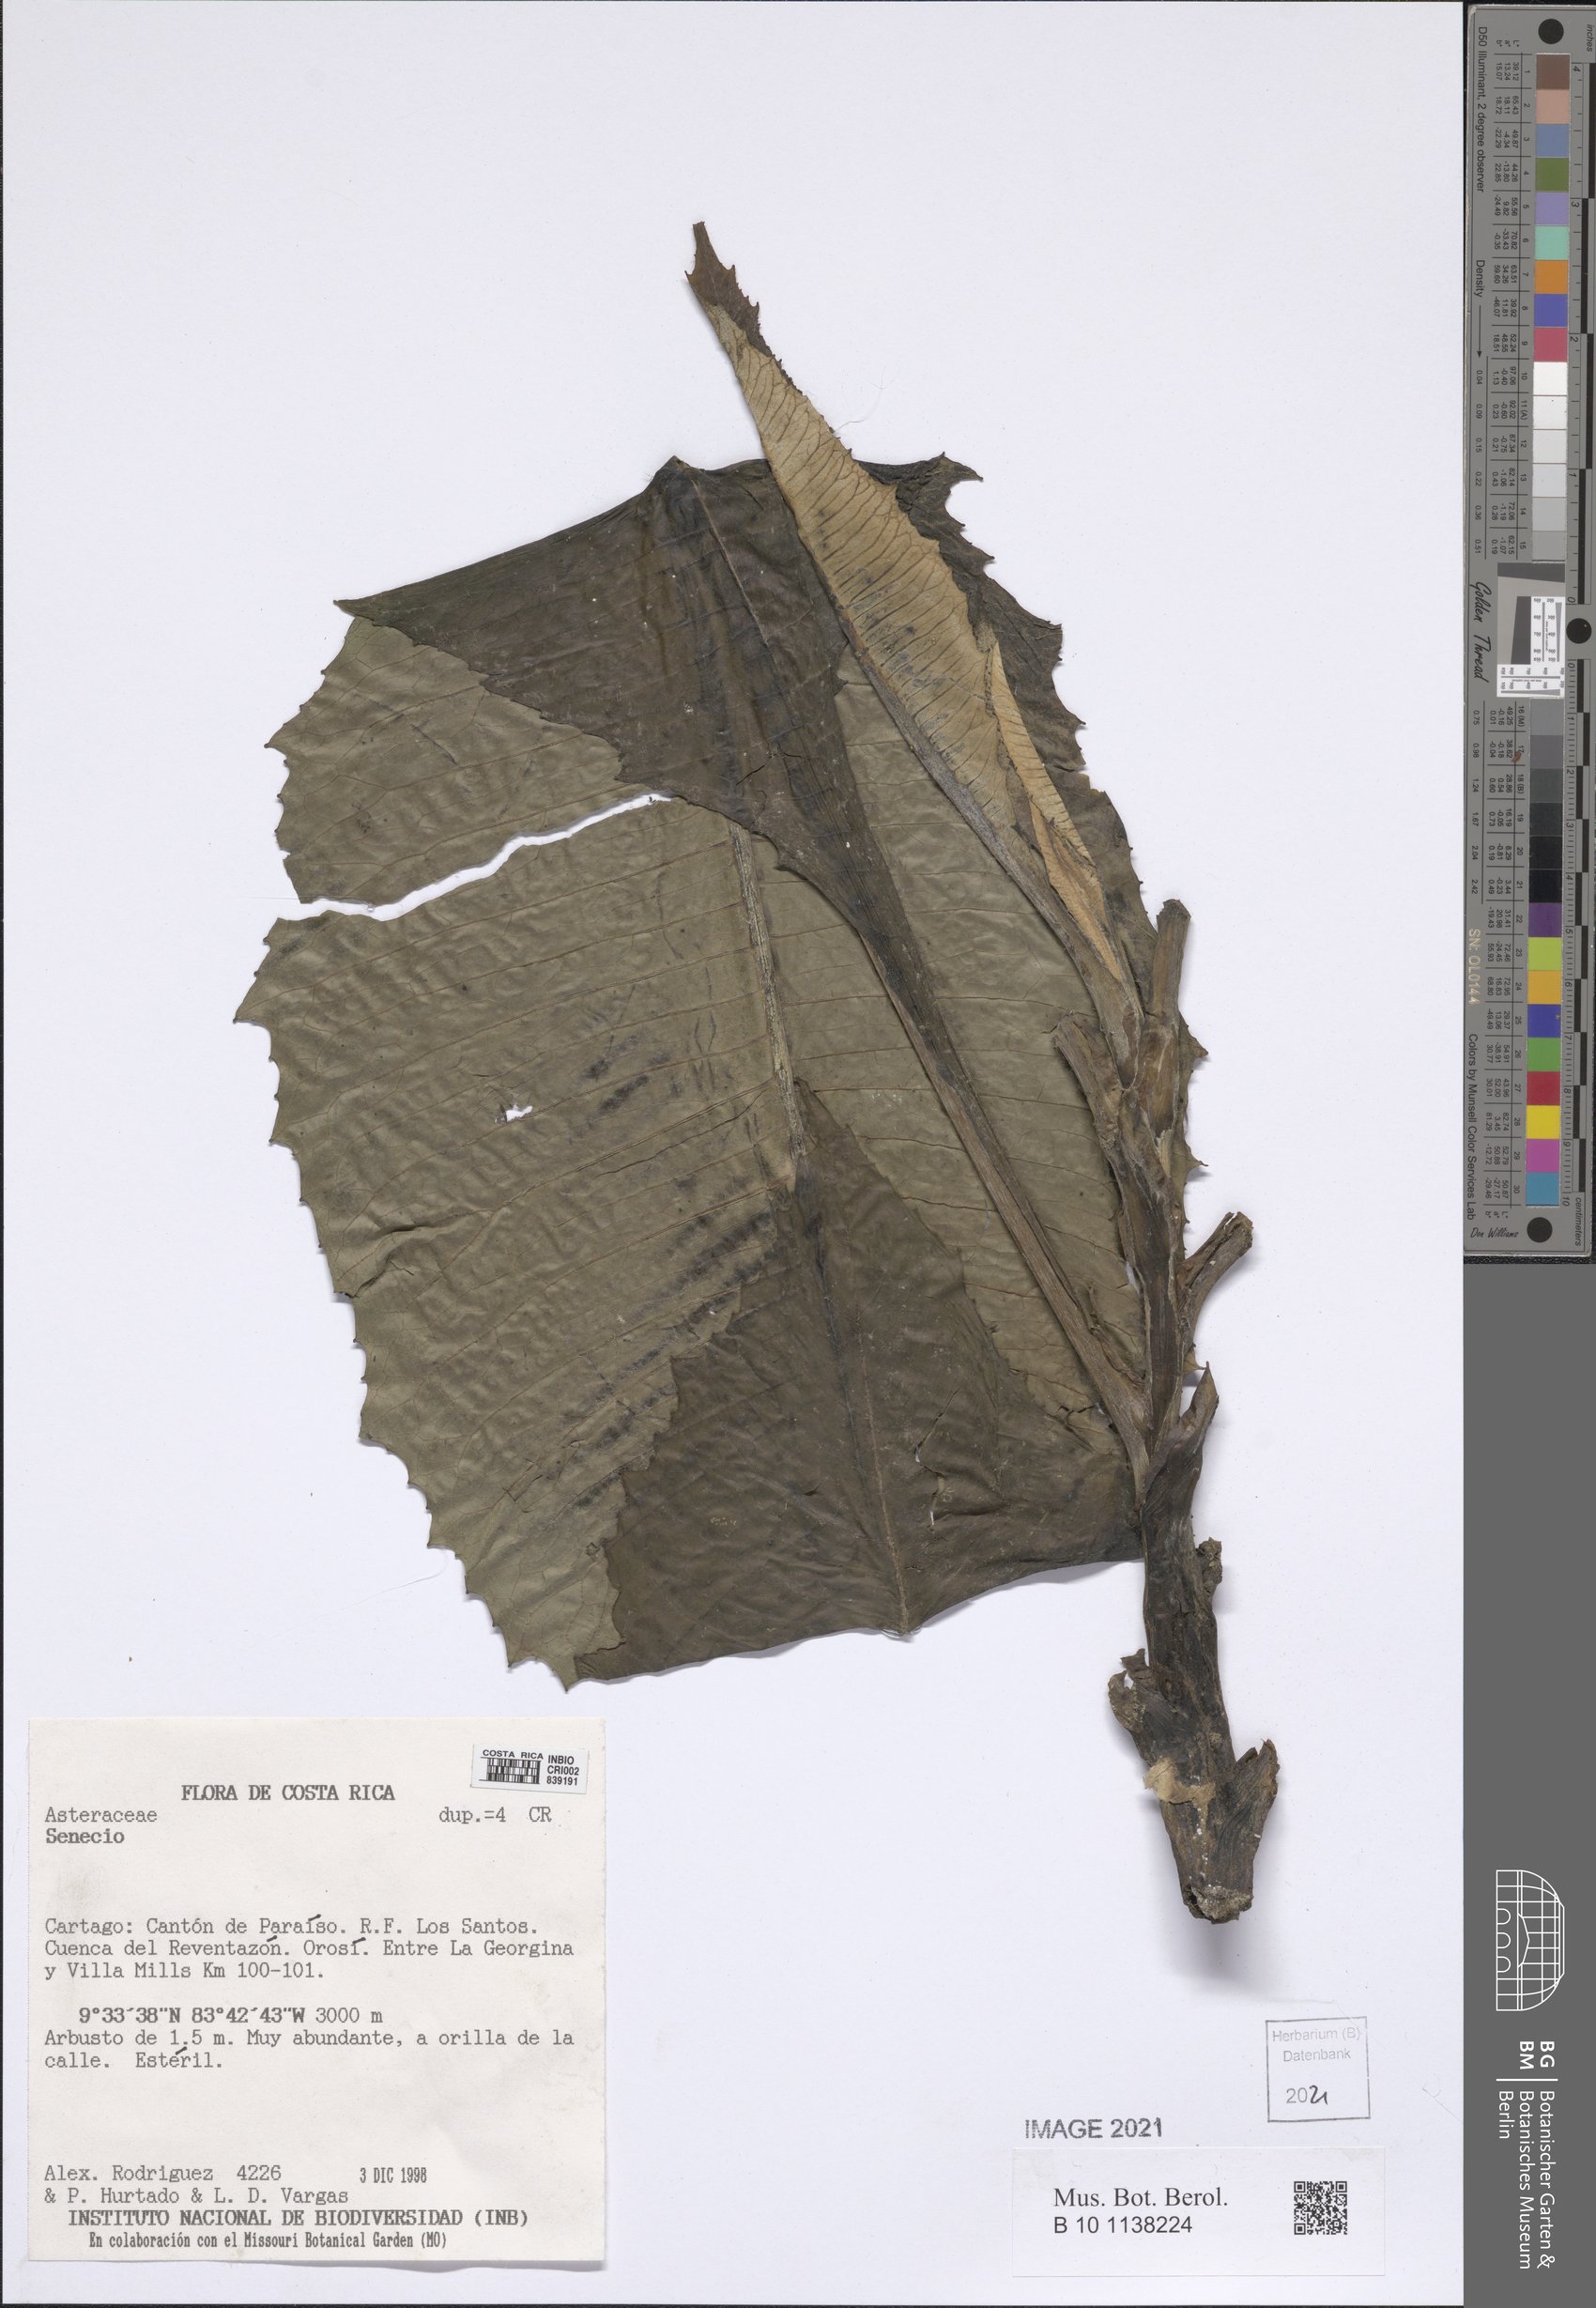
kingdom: Plantae
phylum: Tracheophyta
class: Magnoliopsida
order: Asterales
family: Asteraceae
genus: Jessea
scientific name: Jessea megaphylla
